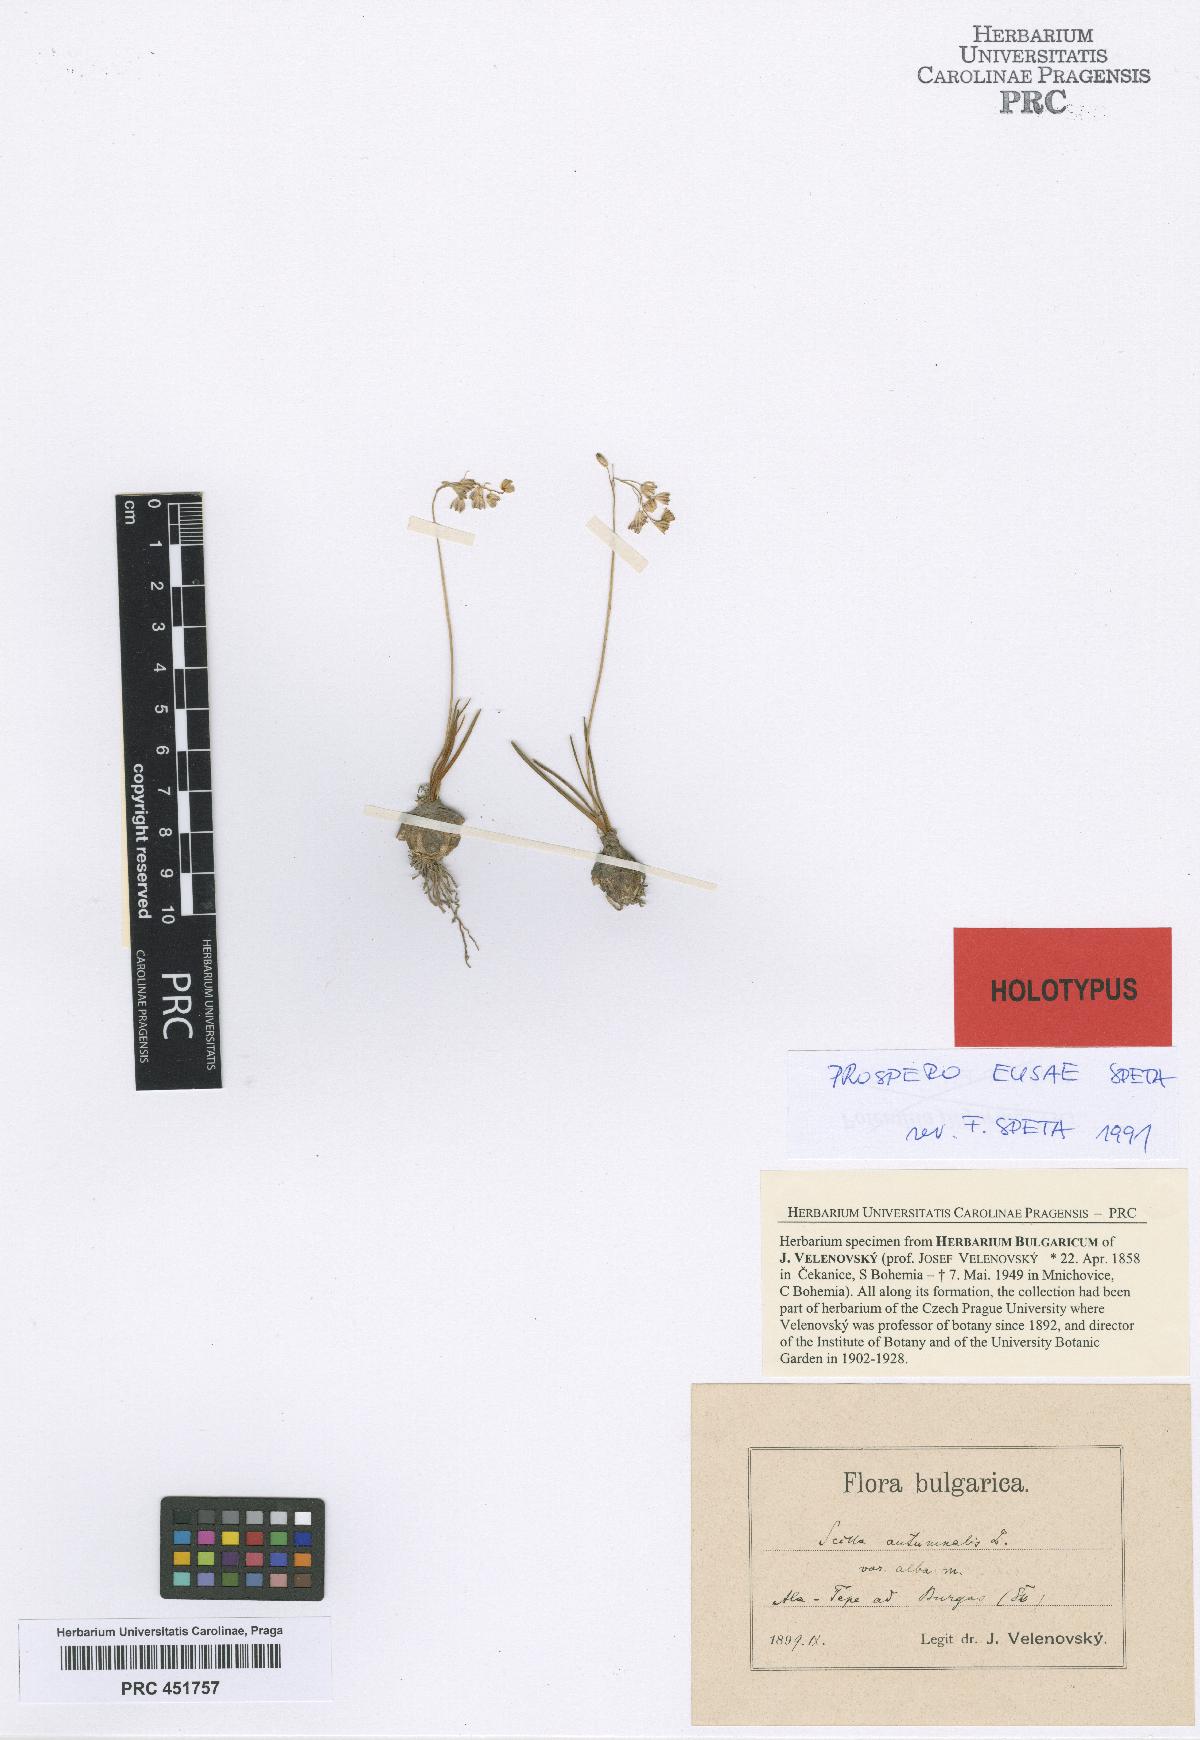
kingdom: Plantae
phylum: Tracheophyta
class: Liliopsida
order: Asparagales
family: Asparagaceae
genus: Scilla
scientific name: Scilla autumnalis
